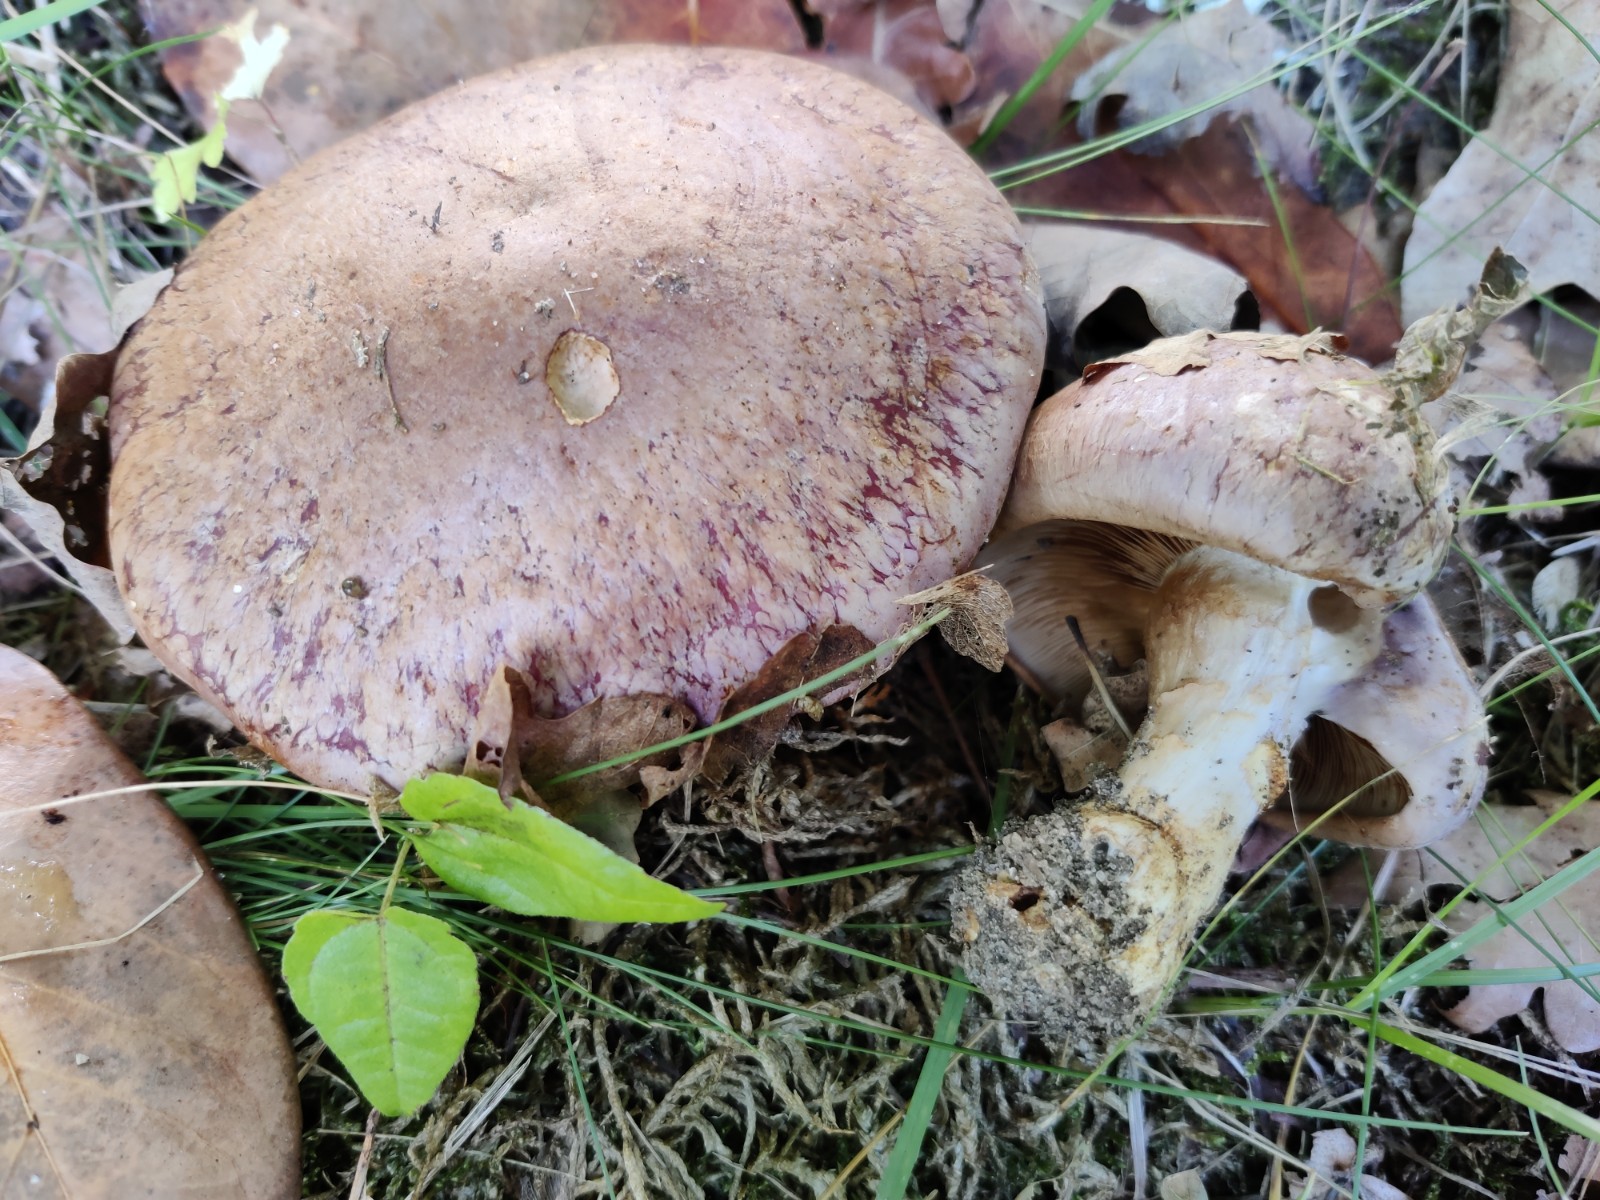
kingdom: Fungi
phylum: Basidiomycota
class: Agaricomycetes
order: Agaricales
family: Cortinariaceae
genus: Phlegmacium
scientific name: Phlegmacium
